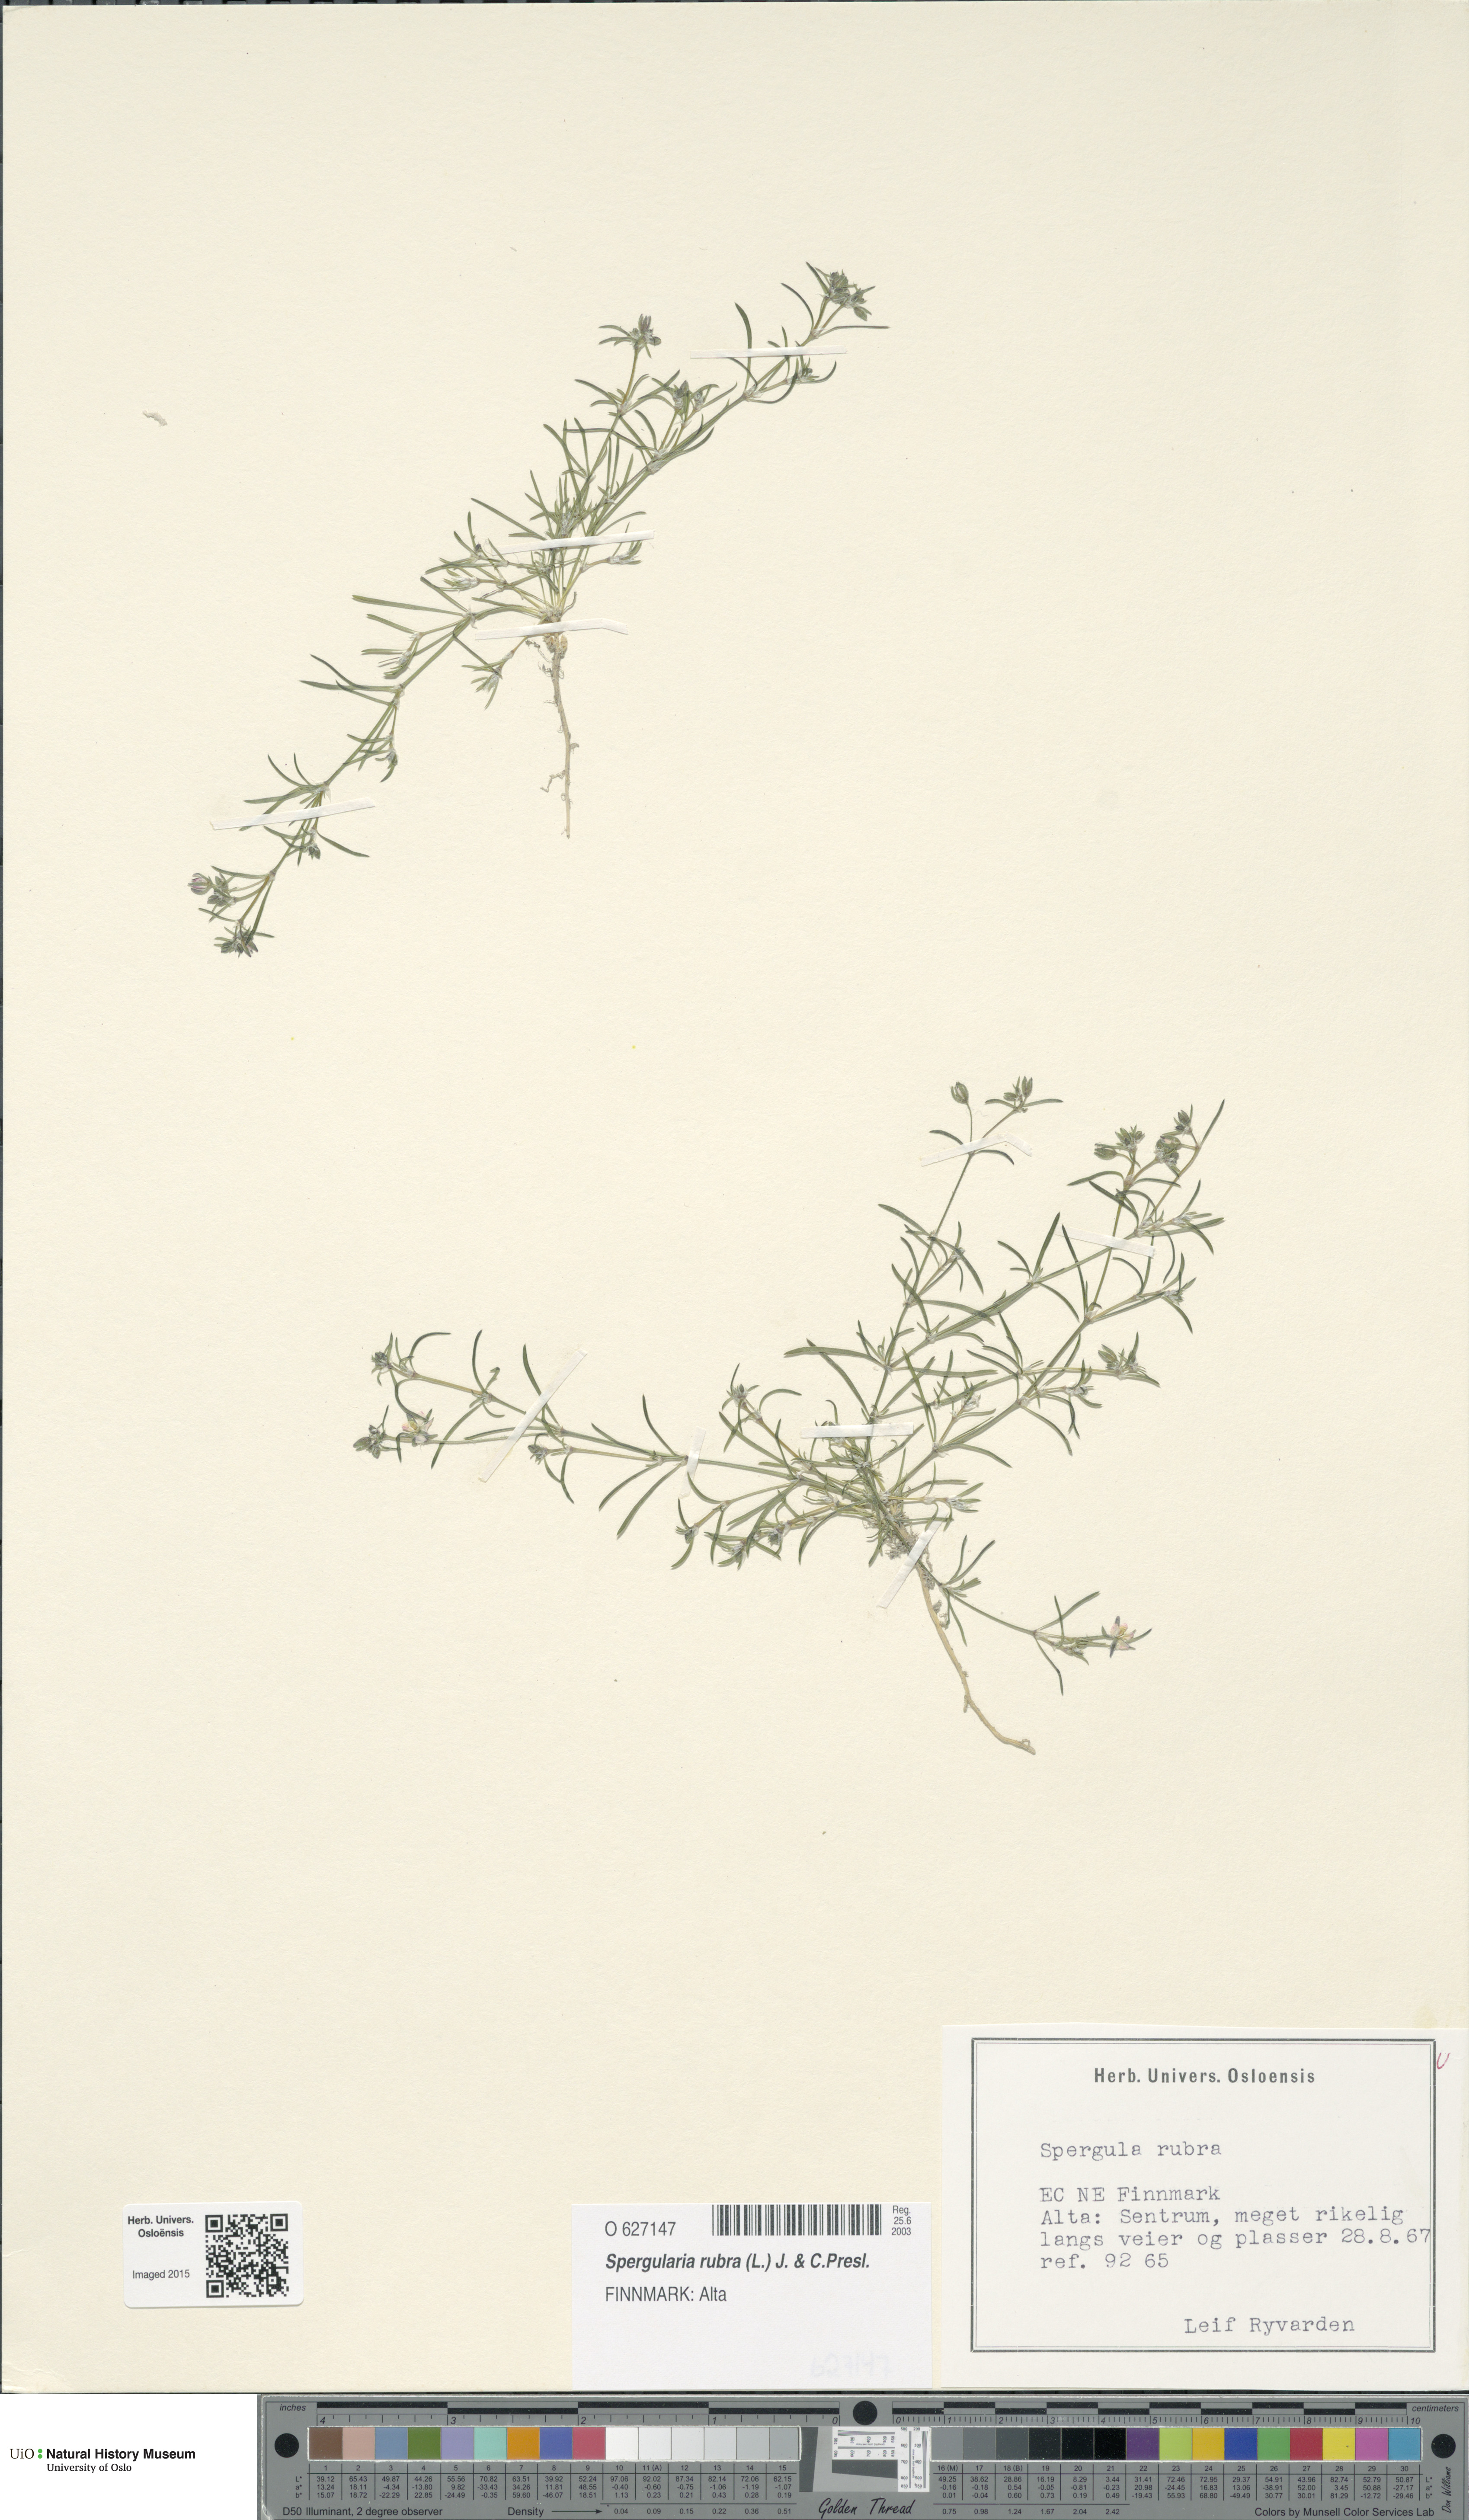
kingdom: Plantae
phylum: Tracheophyta
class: Magnoliopsida
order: Caryophyllales
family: Caryophyllaceae
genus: Spergularia
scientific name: Spergularia rubra
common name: Red sand-spurrey
